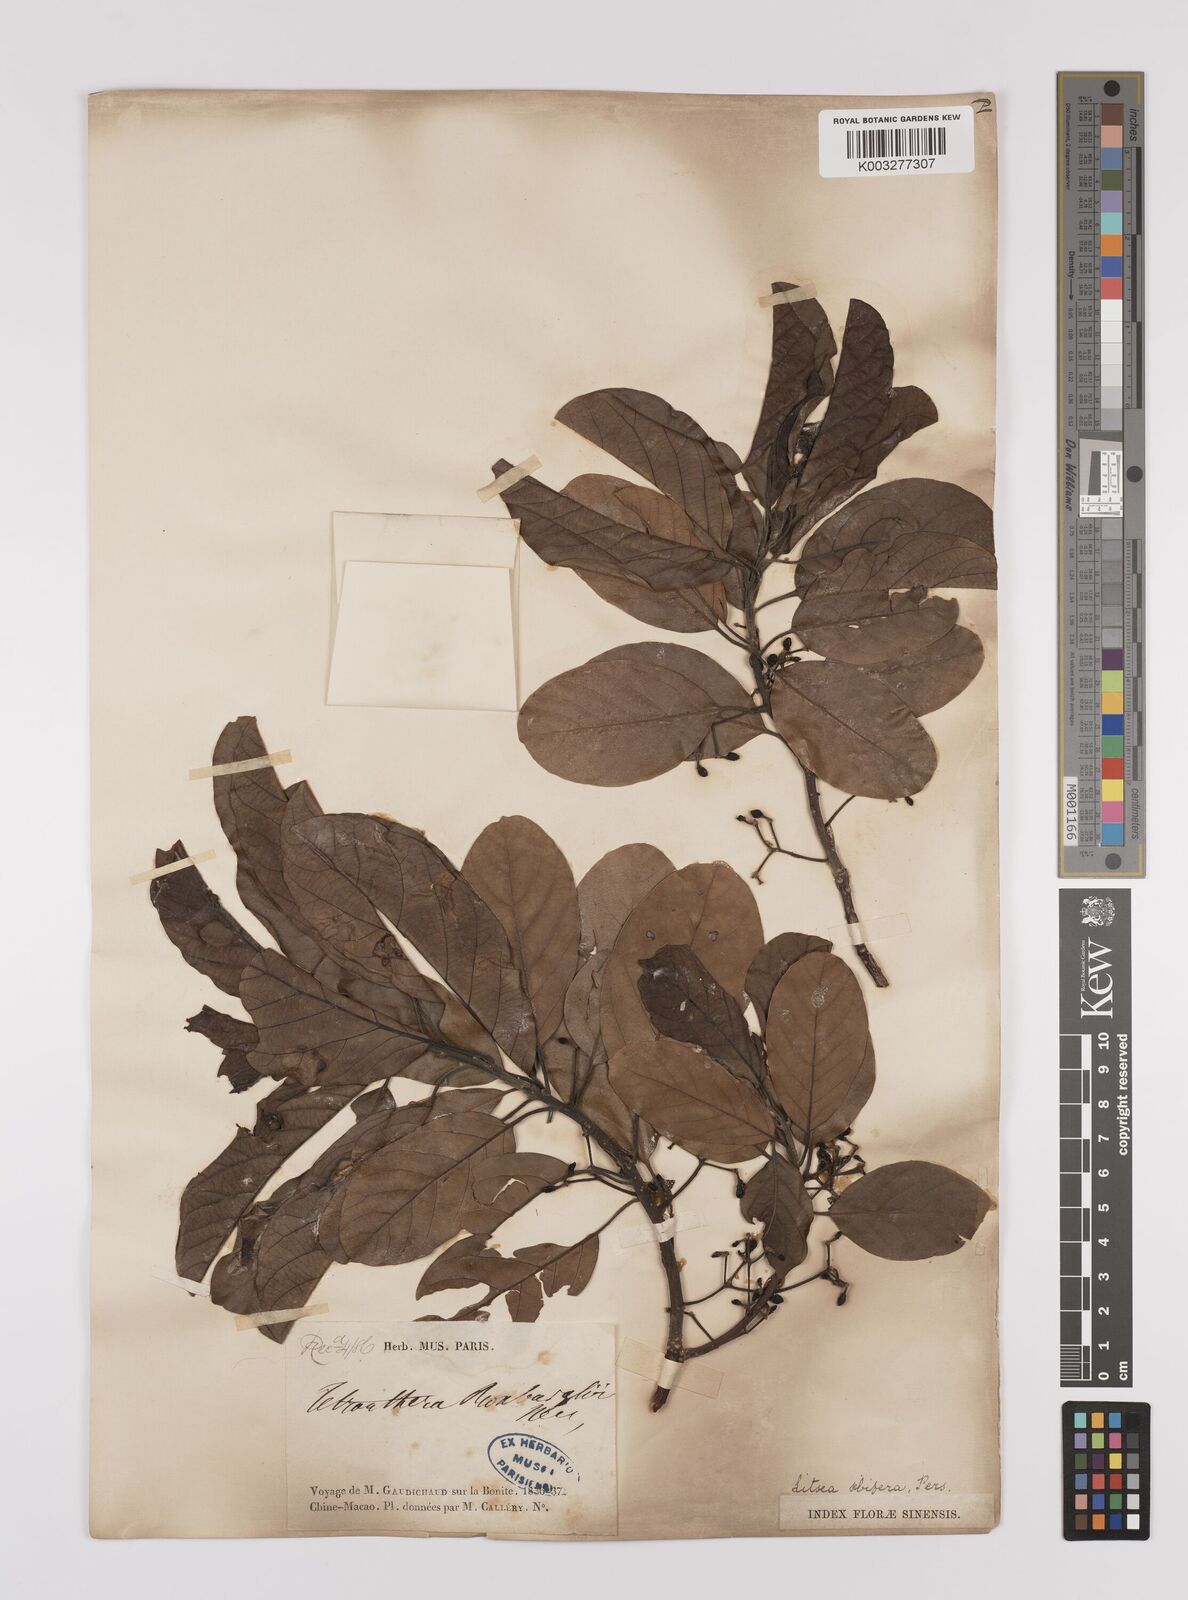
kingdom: Plantae
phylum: Tracheophyta
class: Magnoliopsida
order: Laurales
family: Lauraceae
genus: Litsea
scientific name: Litsea glutinosa
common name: Indian-laurel
